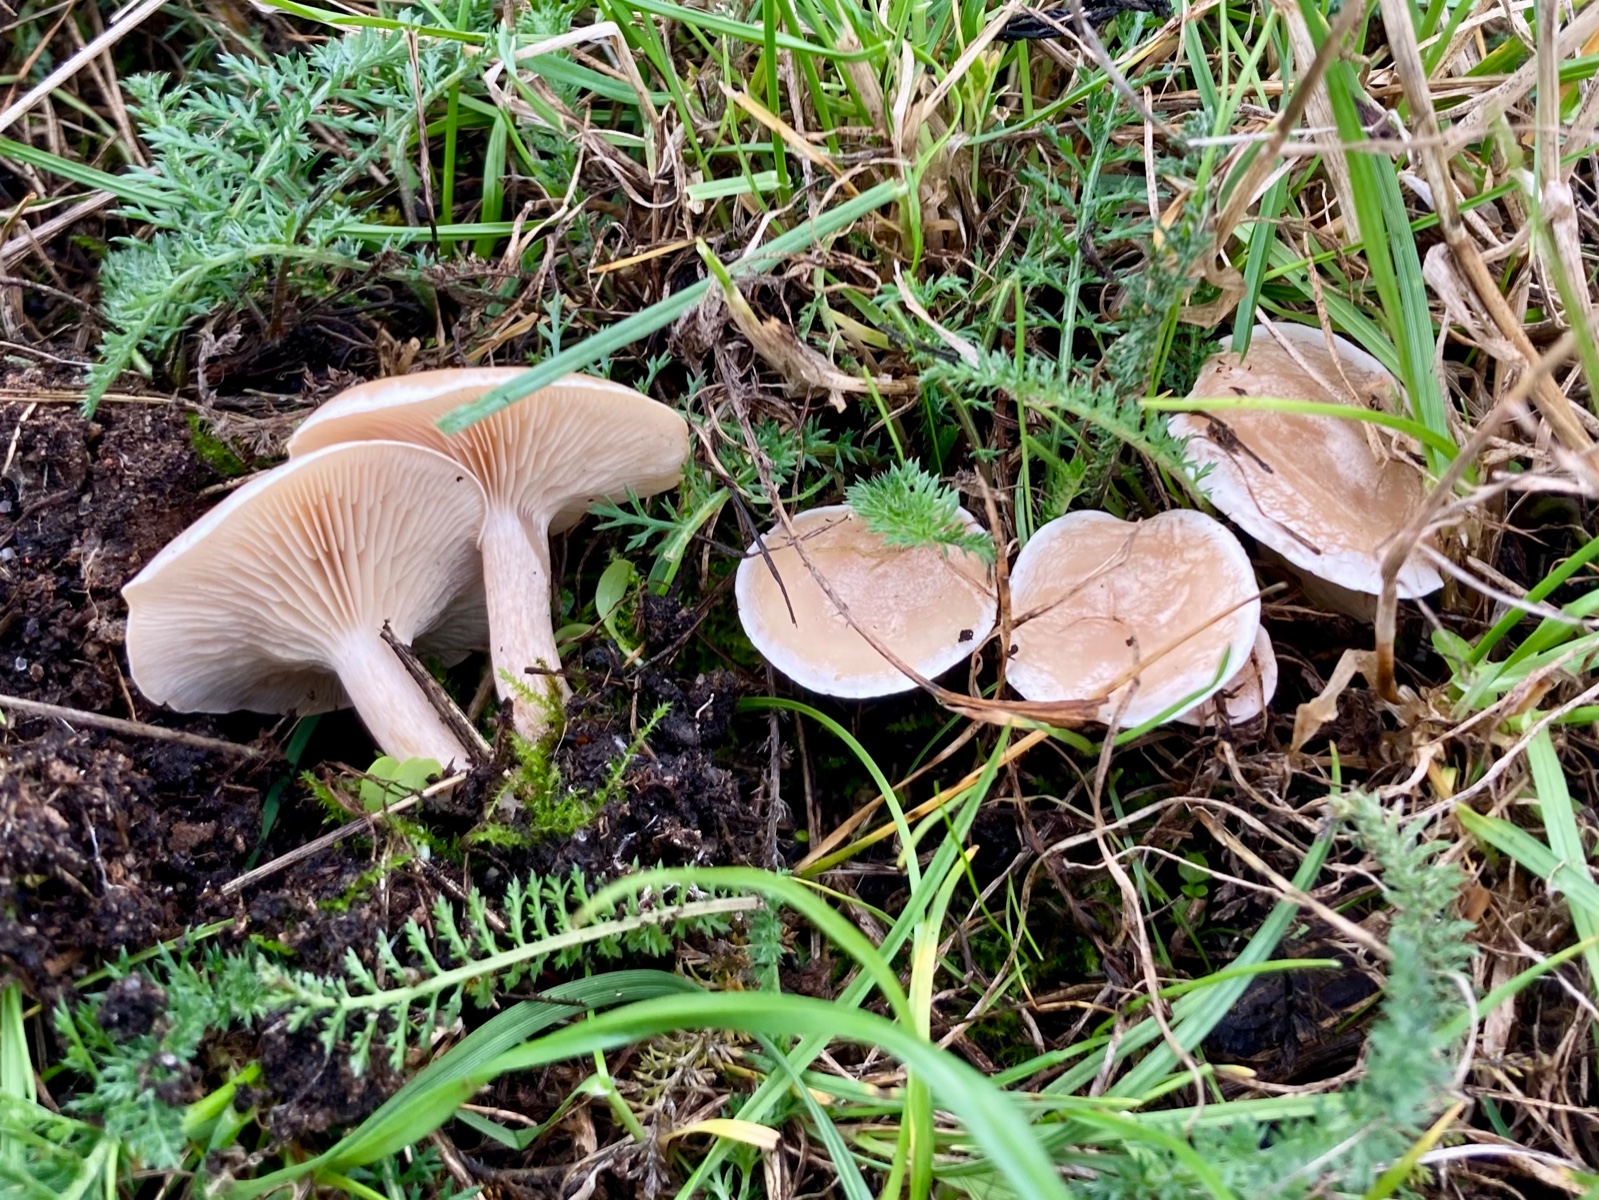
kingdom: Fungi
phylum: Basidiomycota
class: Agaricomycetes
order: Agaricales
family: Tricholomataceae
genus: Clitocybe
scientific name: Clitocybe diatreta
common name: kødfarvet tragthat
